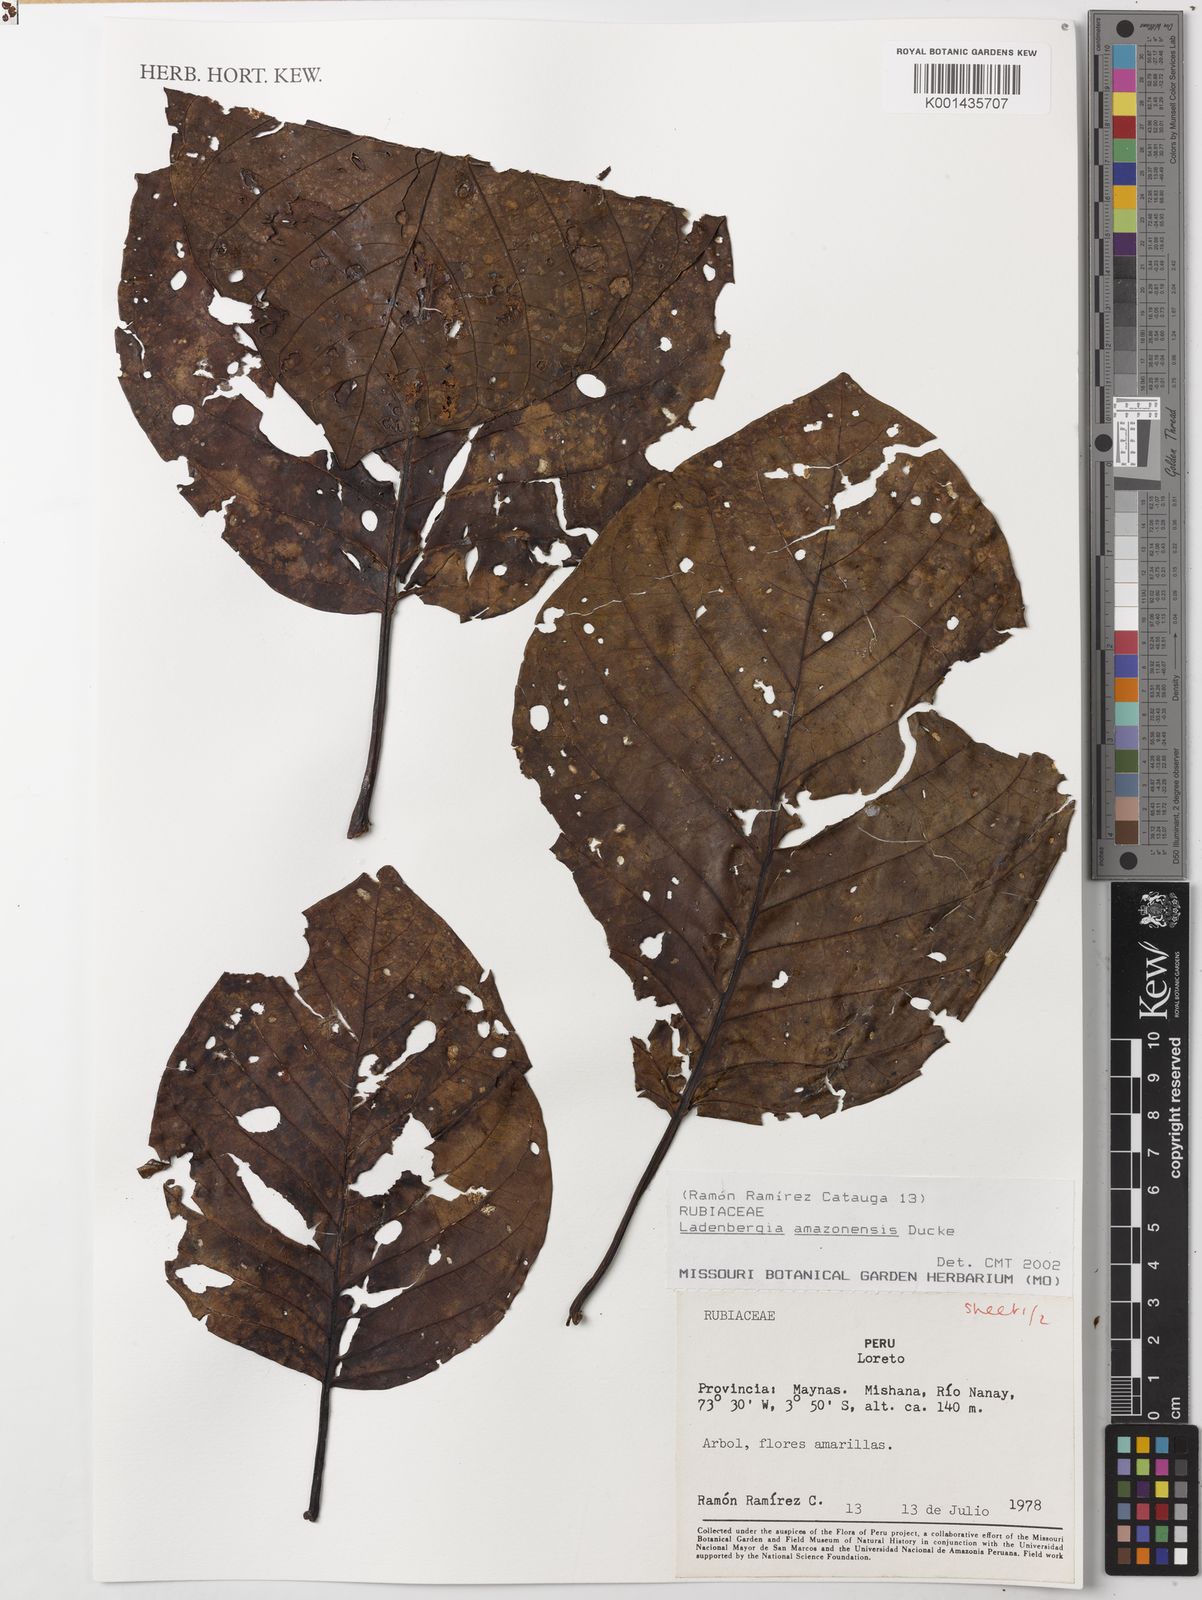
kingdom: Plantae
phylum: Tracheophyta
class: Magnoliopsida
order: Gentianales
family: Rubiaceae
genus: Ladenbergia
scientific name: Ladenbergia amazonensis
